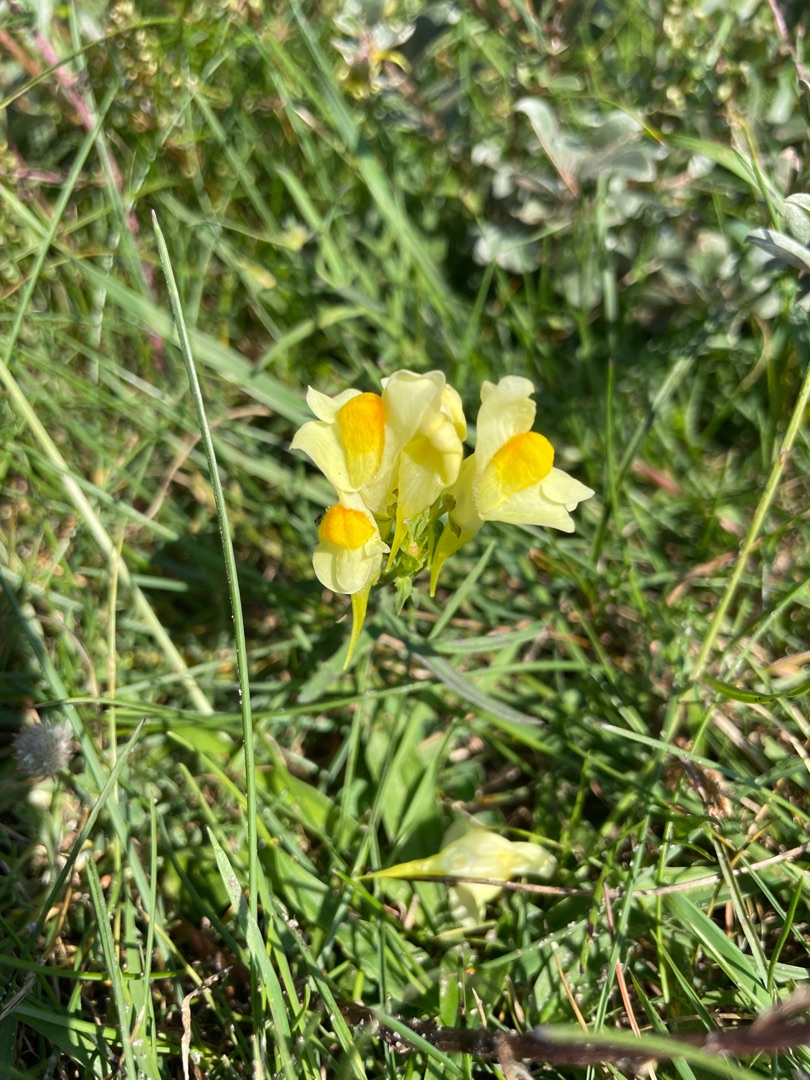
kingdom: Plantae
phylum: Tracheophyta
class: Magnoliopsida
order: Lamiales
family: Plantaginaceae
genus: Linaria
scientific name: Linaria vulgaris
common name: Almindelig torskemund
